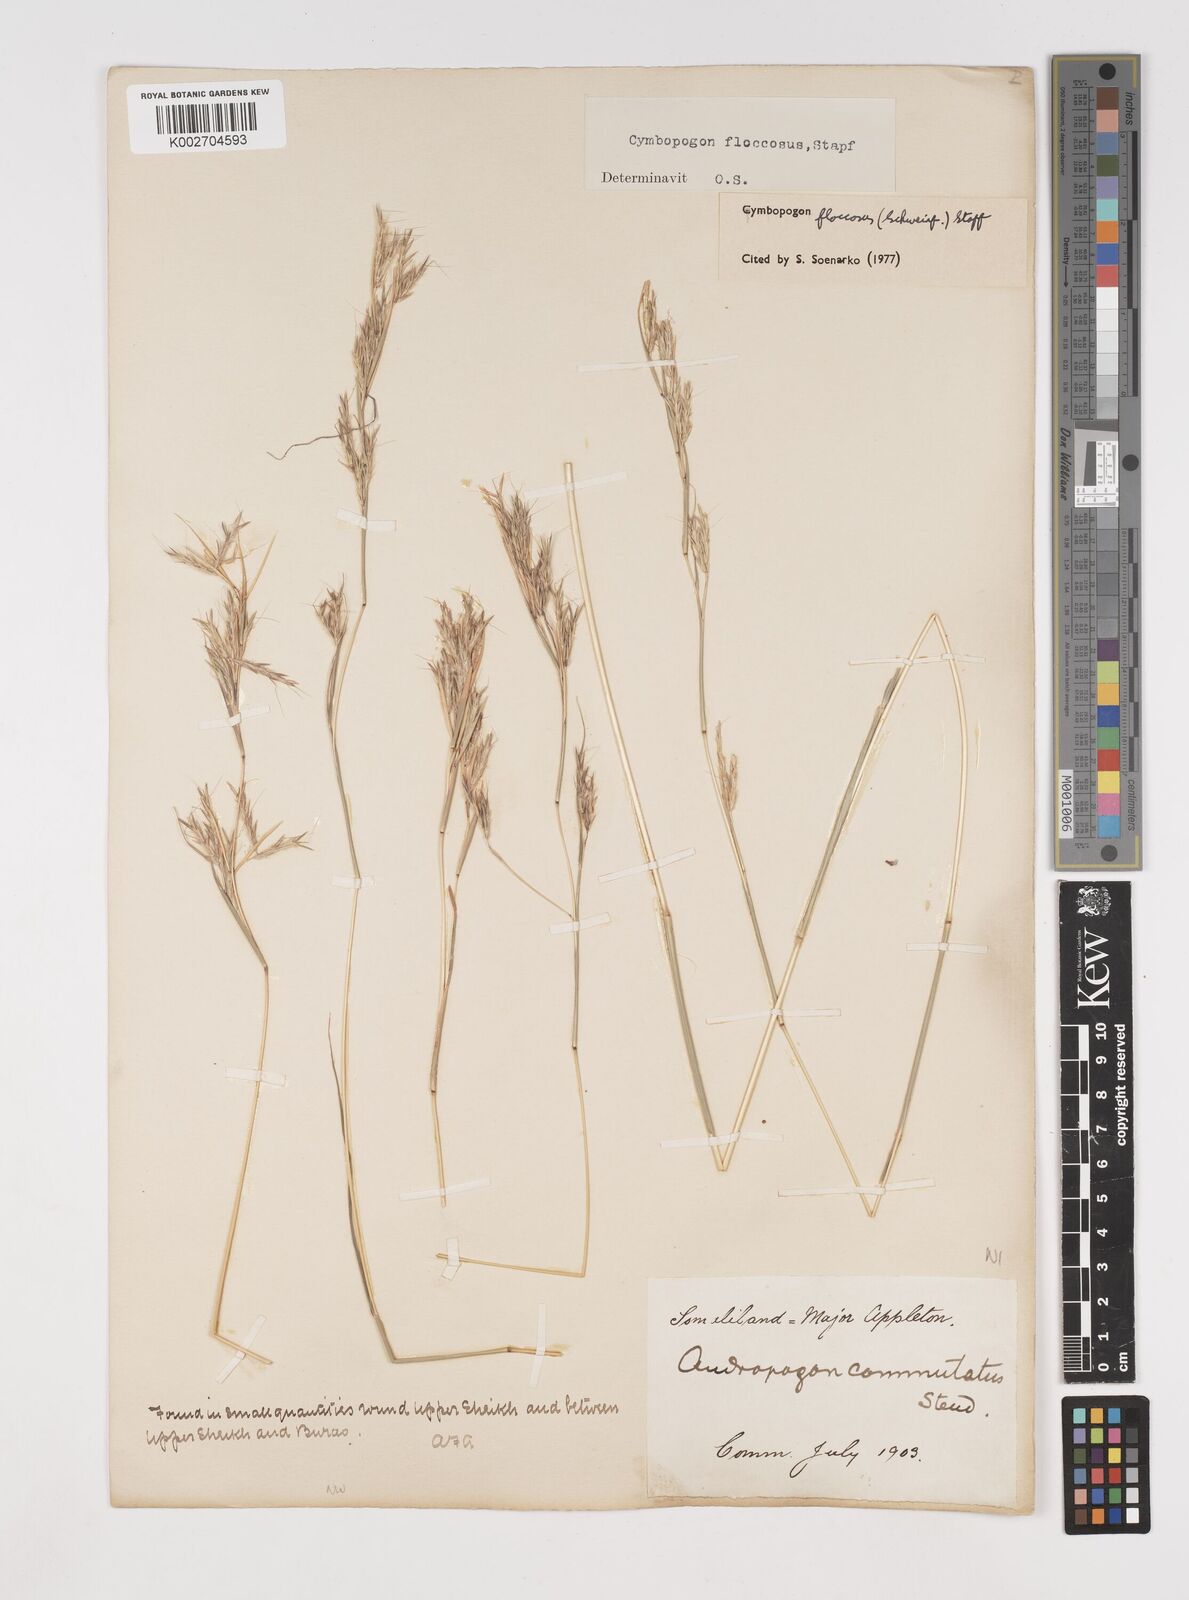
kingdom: Plantae
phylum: Tracheophyta
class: Liliopsida
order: Poales
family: Poaceae
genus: Cymbopogon
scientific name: Cymbopogon commutatus
